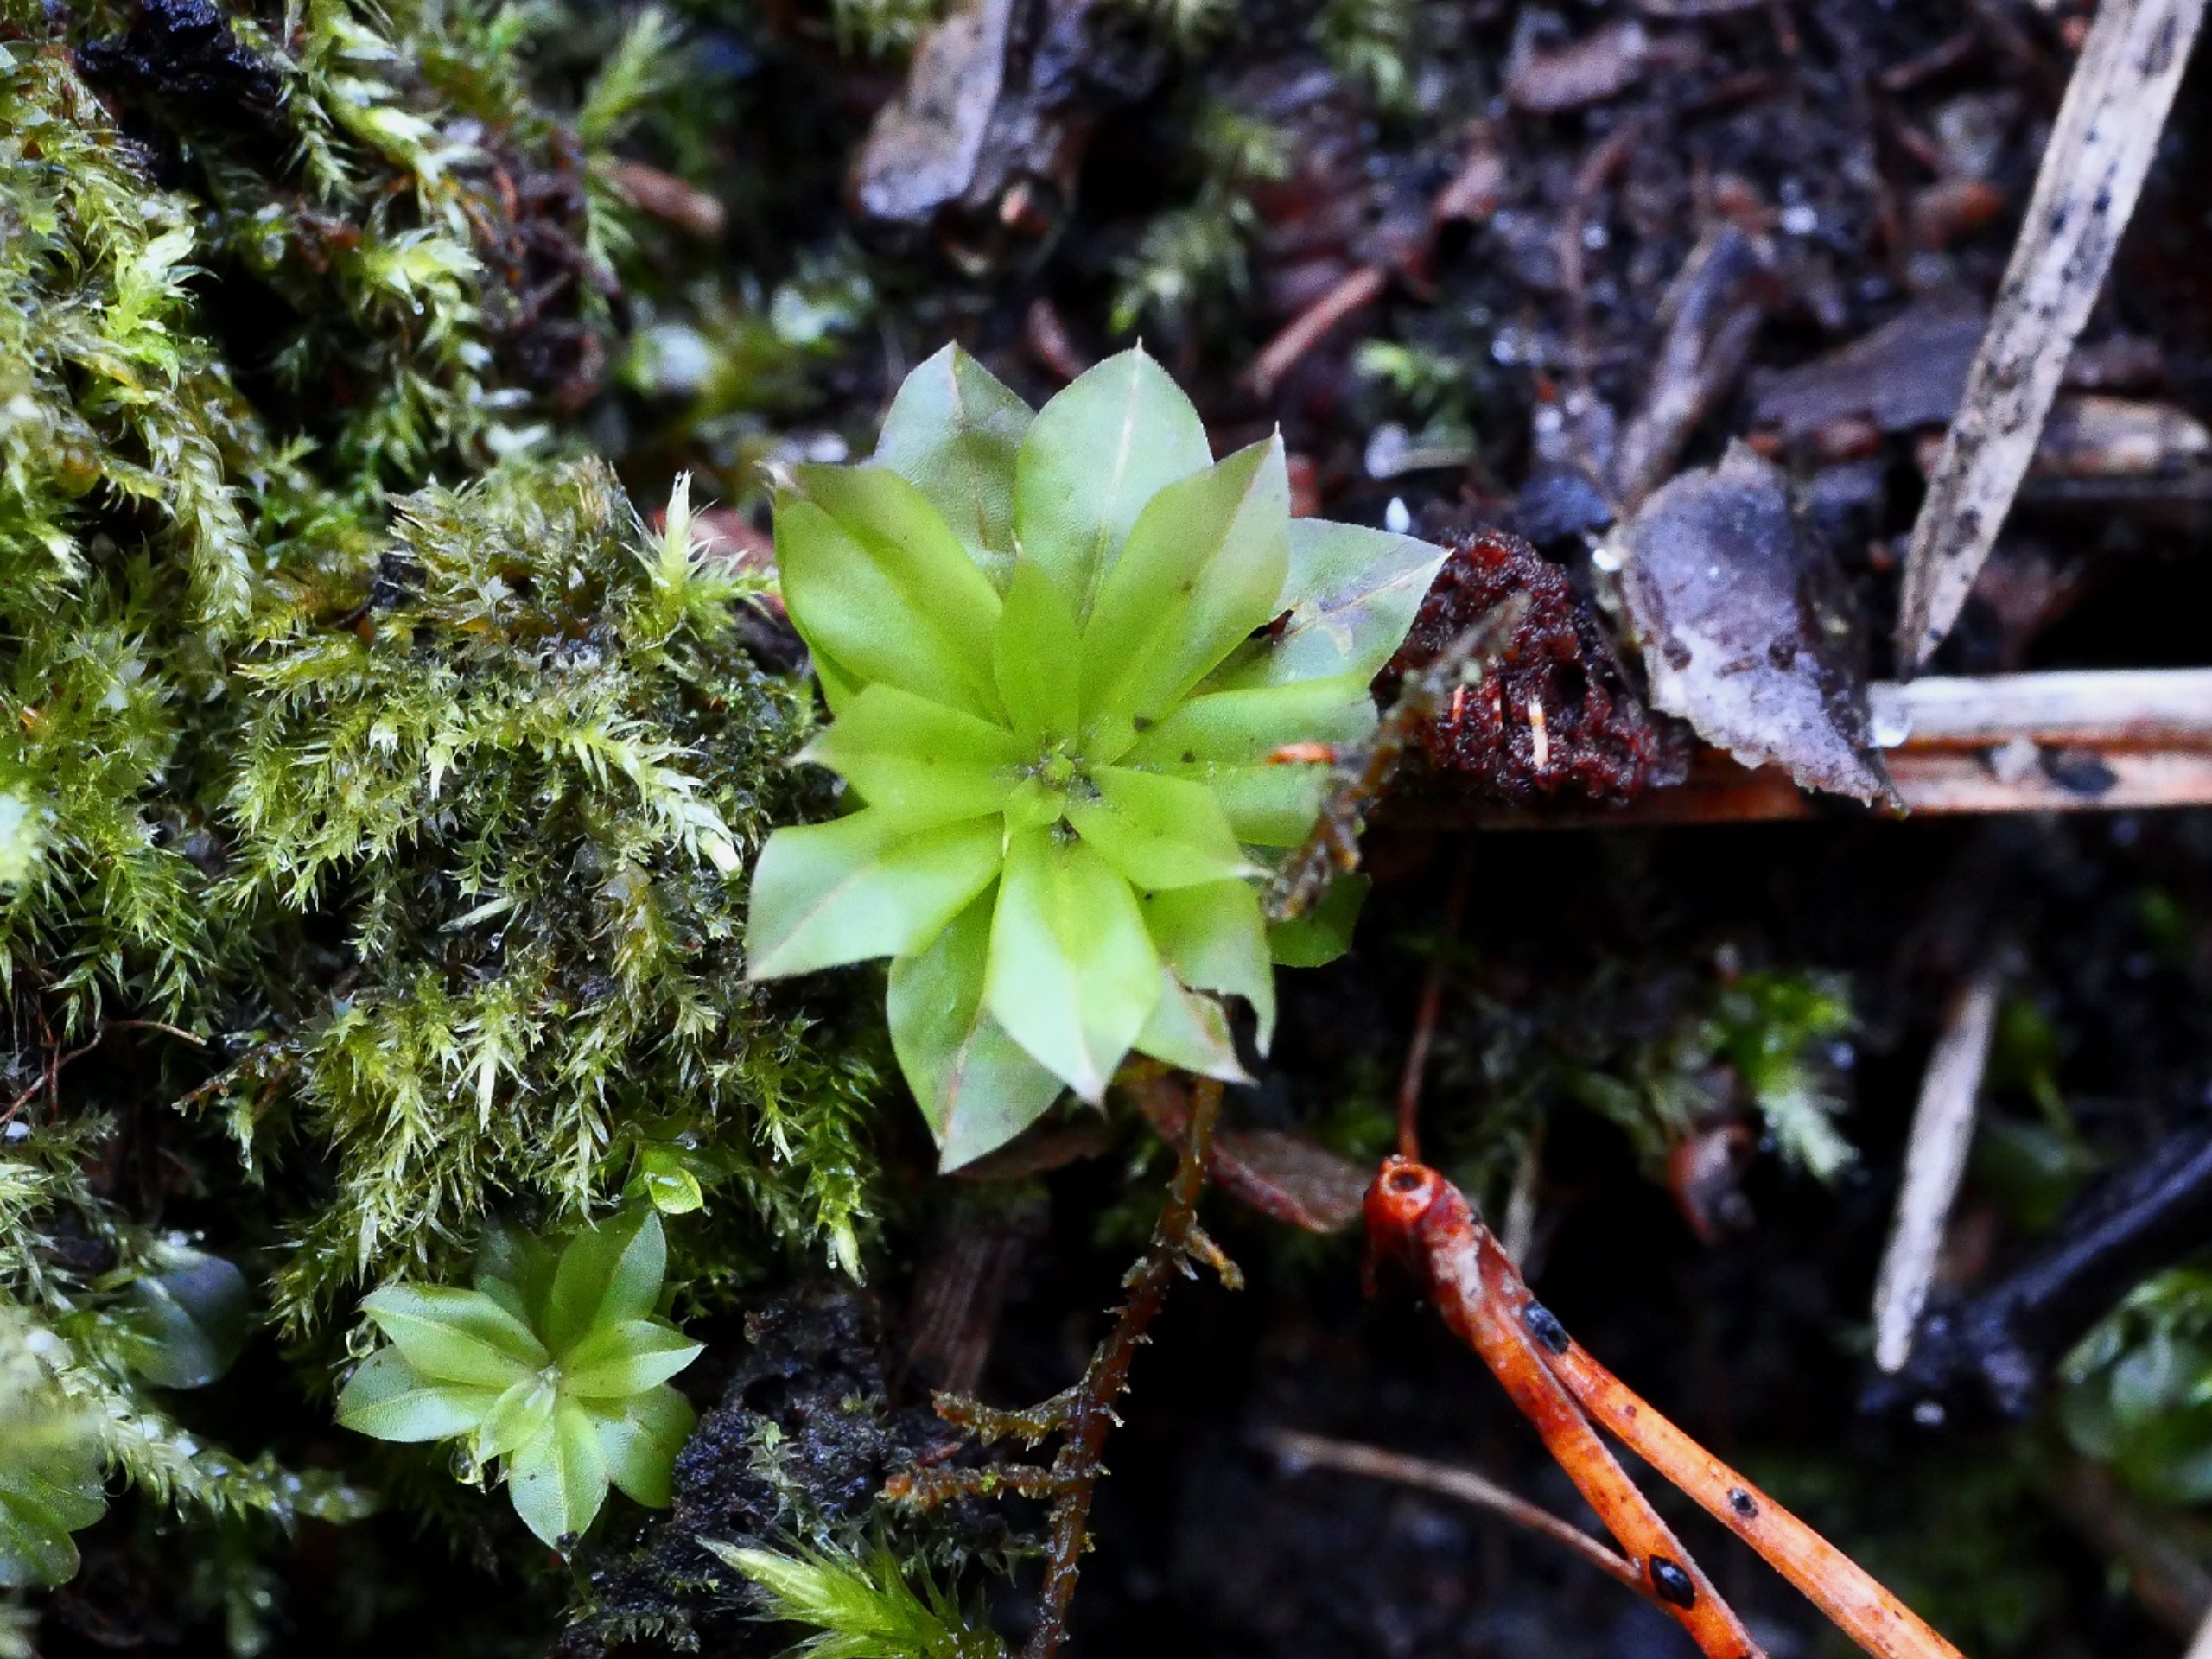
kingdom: Plantae
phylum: Bryophyta
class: Bryopsida
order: Bryales
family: Bryaceae
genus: Rhodobryum
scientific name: Rhodobryum roseum
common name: Stor rosetmos
